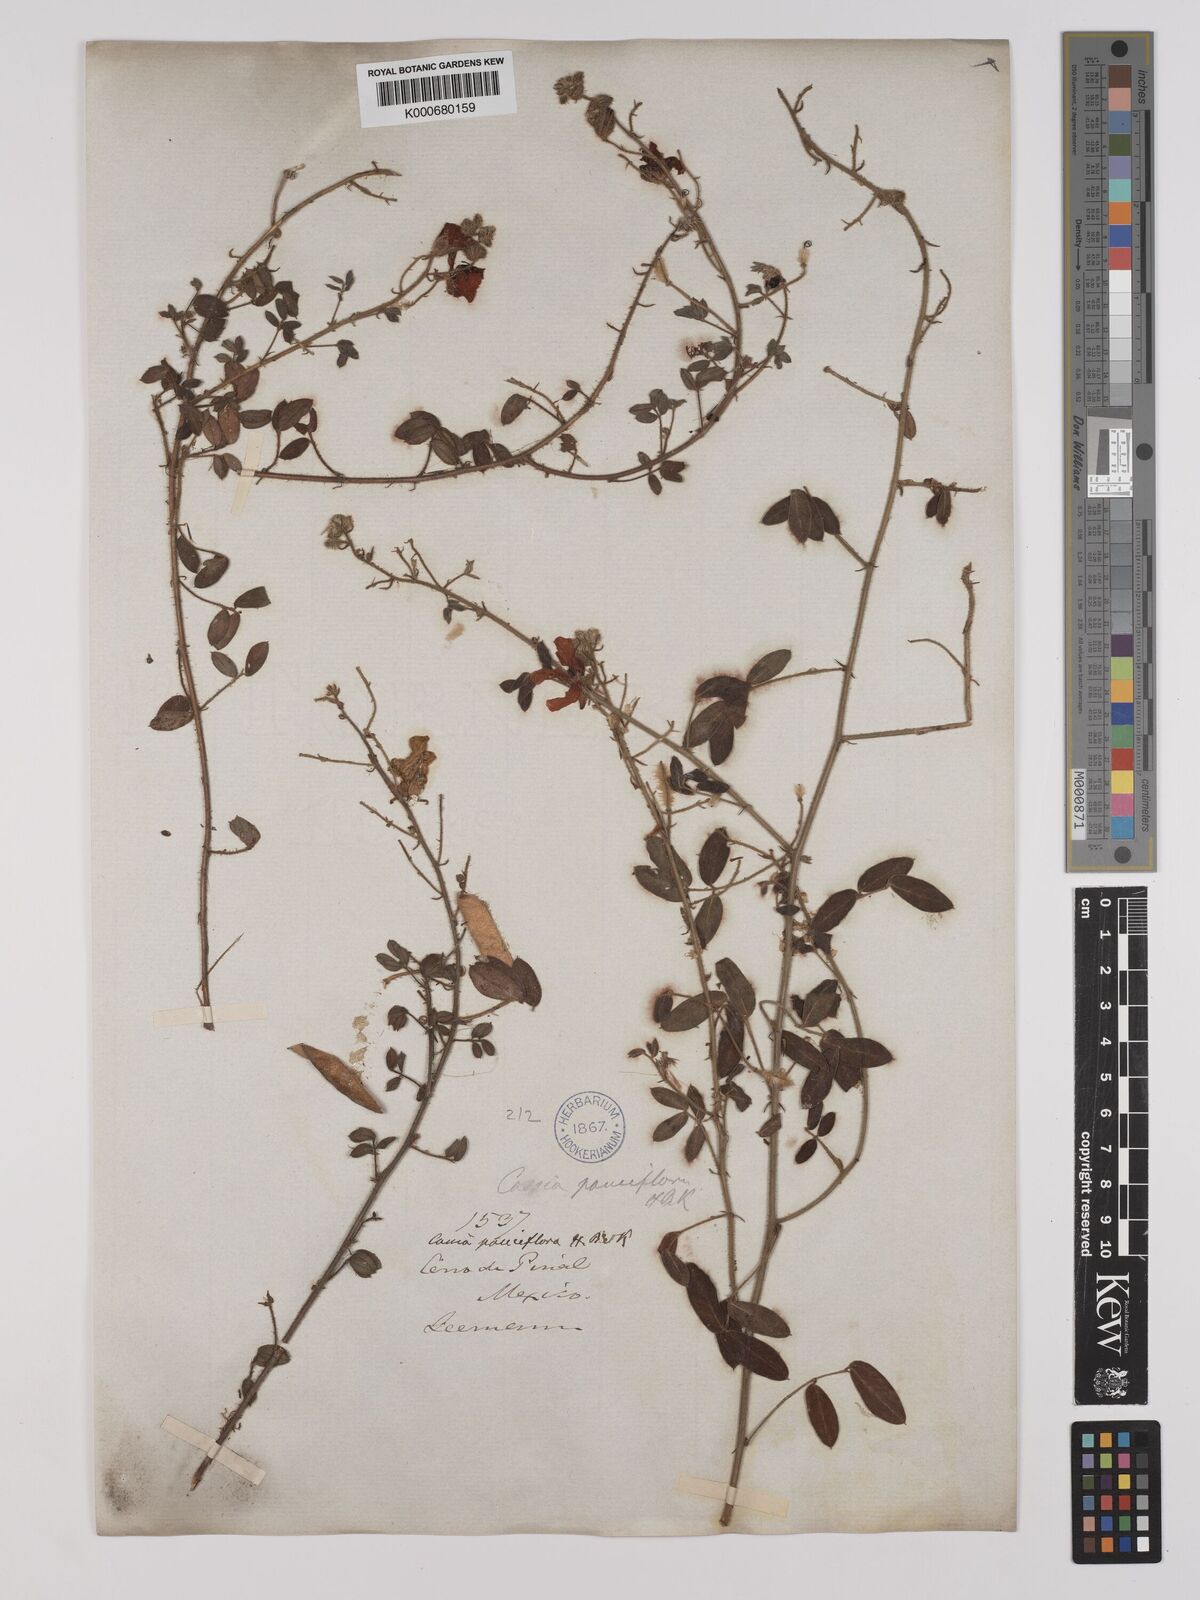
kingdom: Plantae
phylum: Tracheophyta
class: Magnoliopsida
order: Fabales
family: Fabaceae
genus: Chamaecrista
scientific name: Chamaecrista hispidula
